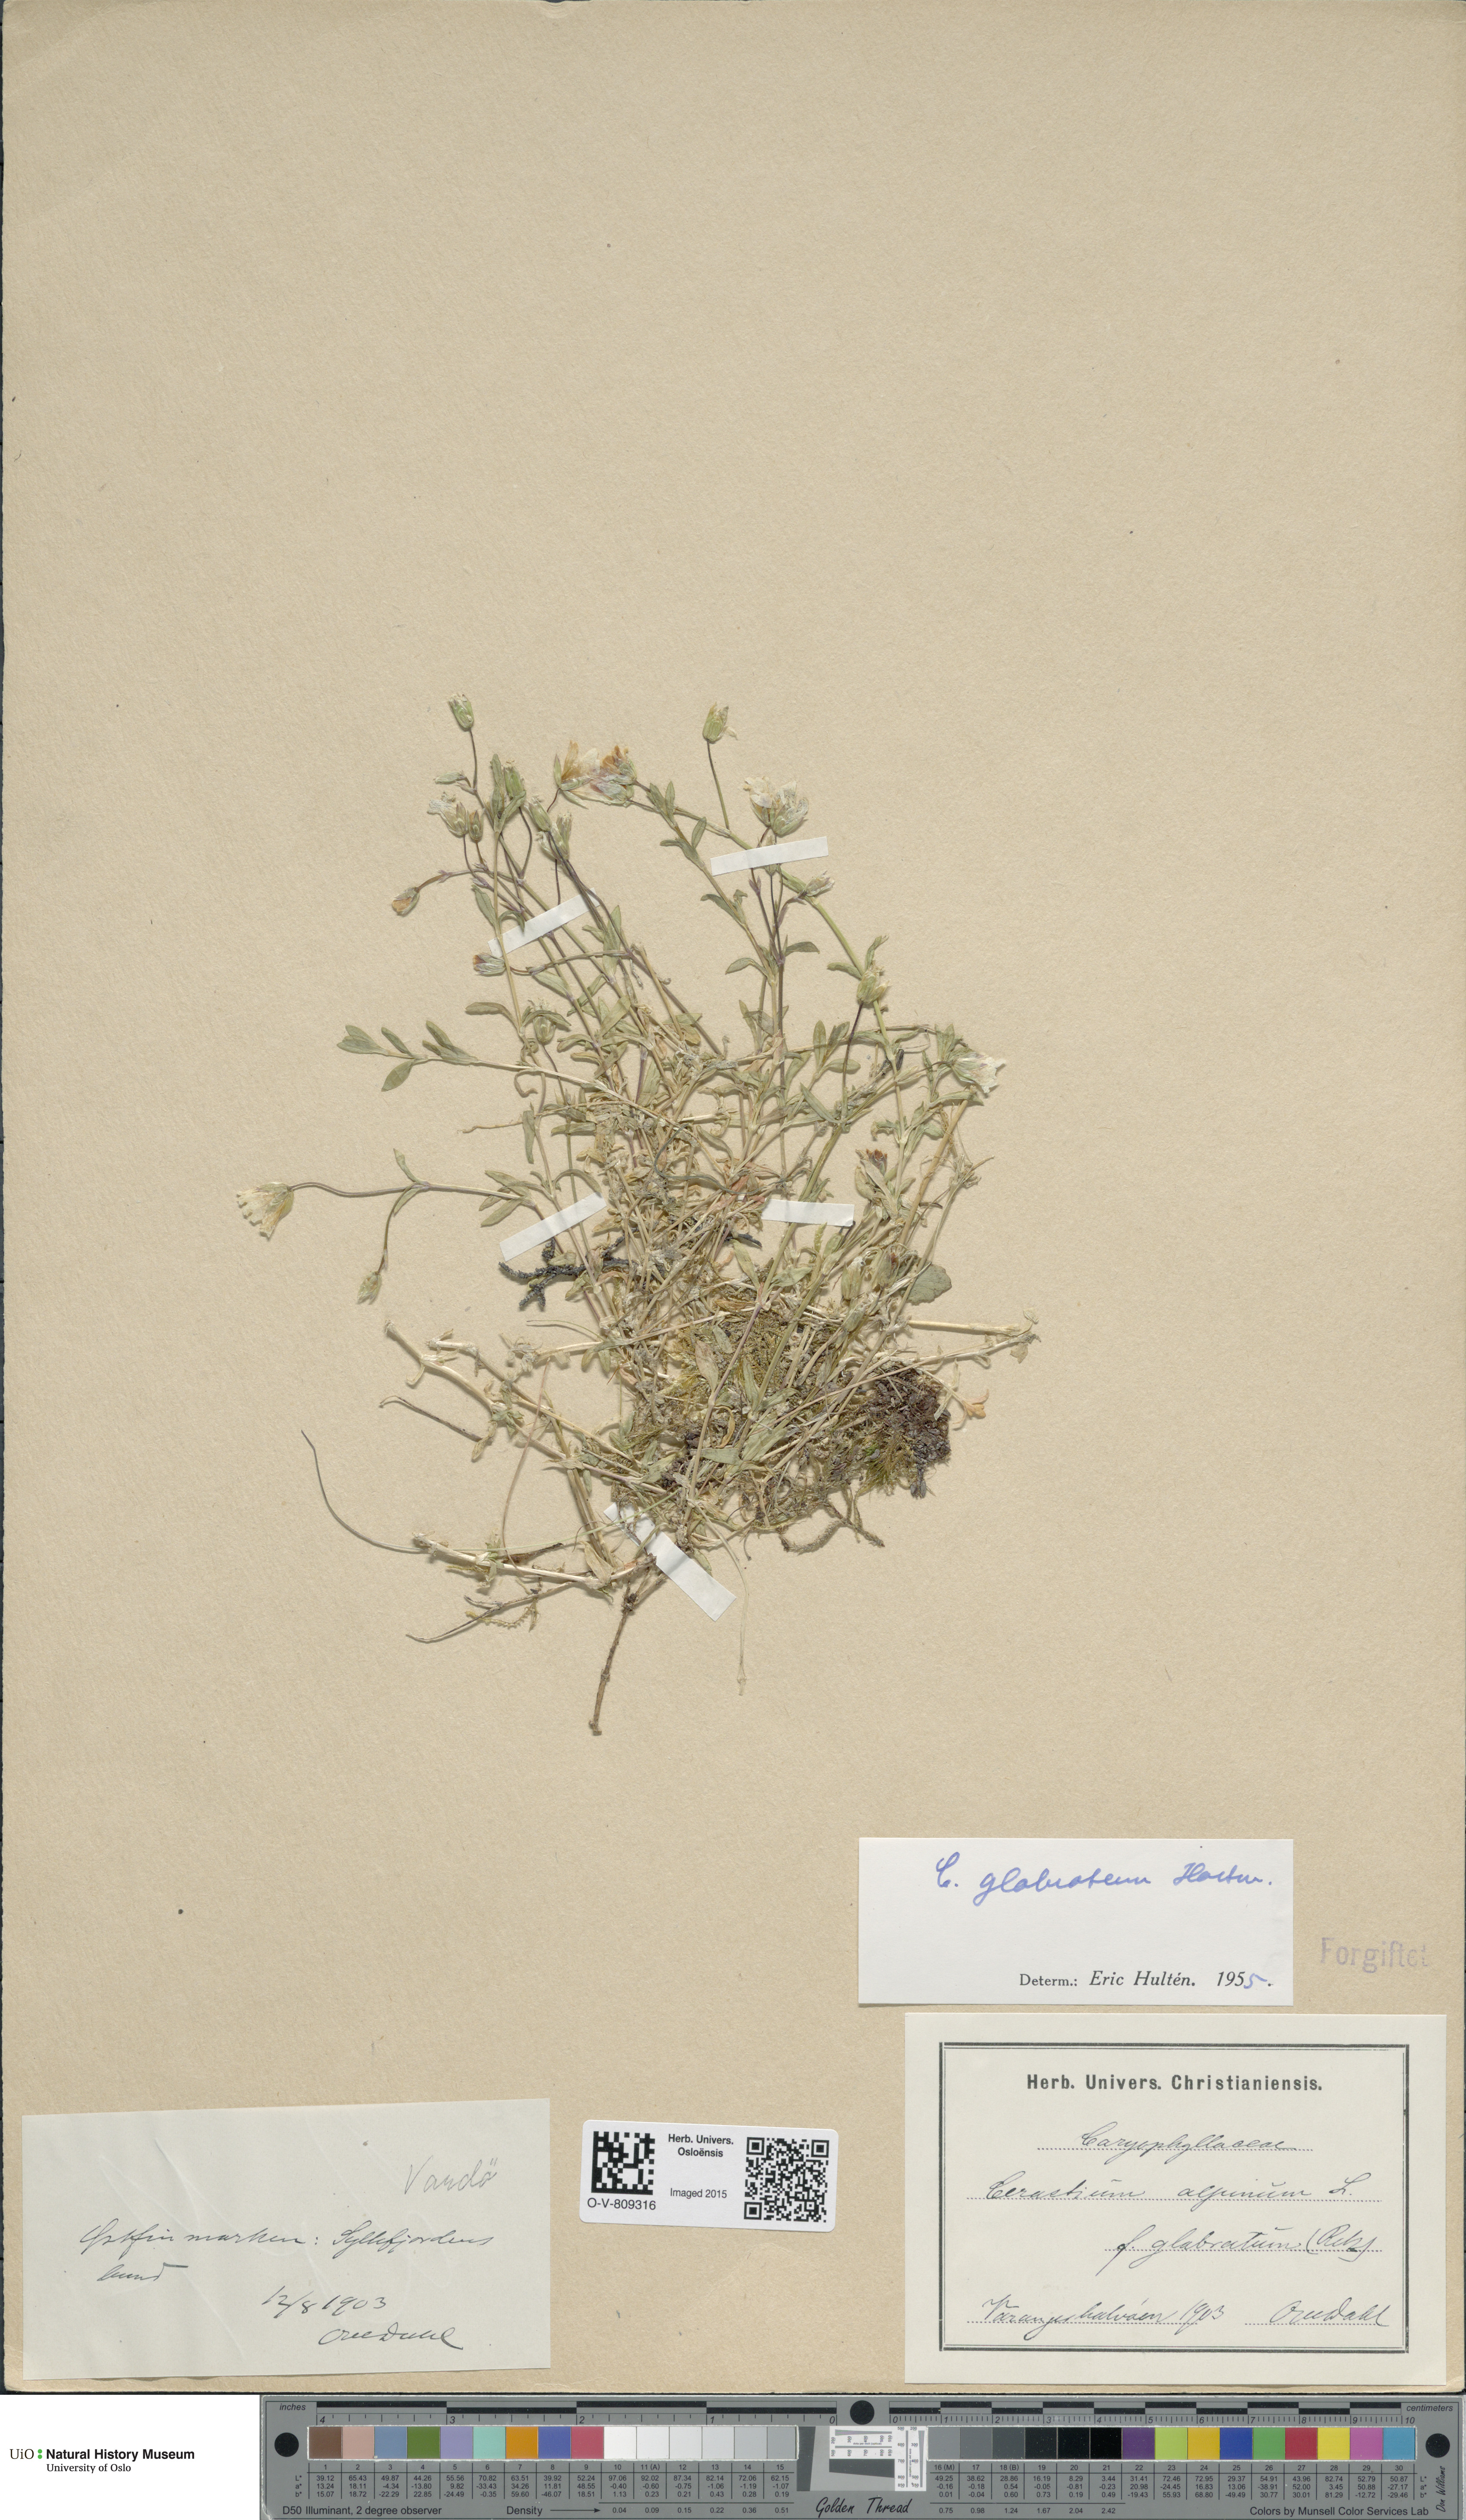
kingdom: Plantae
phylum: Tracheophyta
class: Magnoliopsida
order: Caryophyllales
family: Caryophyllaceae
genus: Cerastium
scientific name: Cerastium alpinum
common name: Alpine mouse-ear
